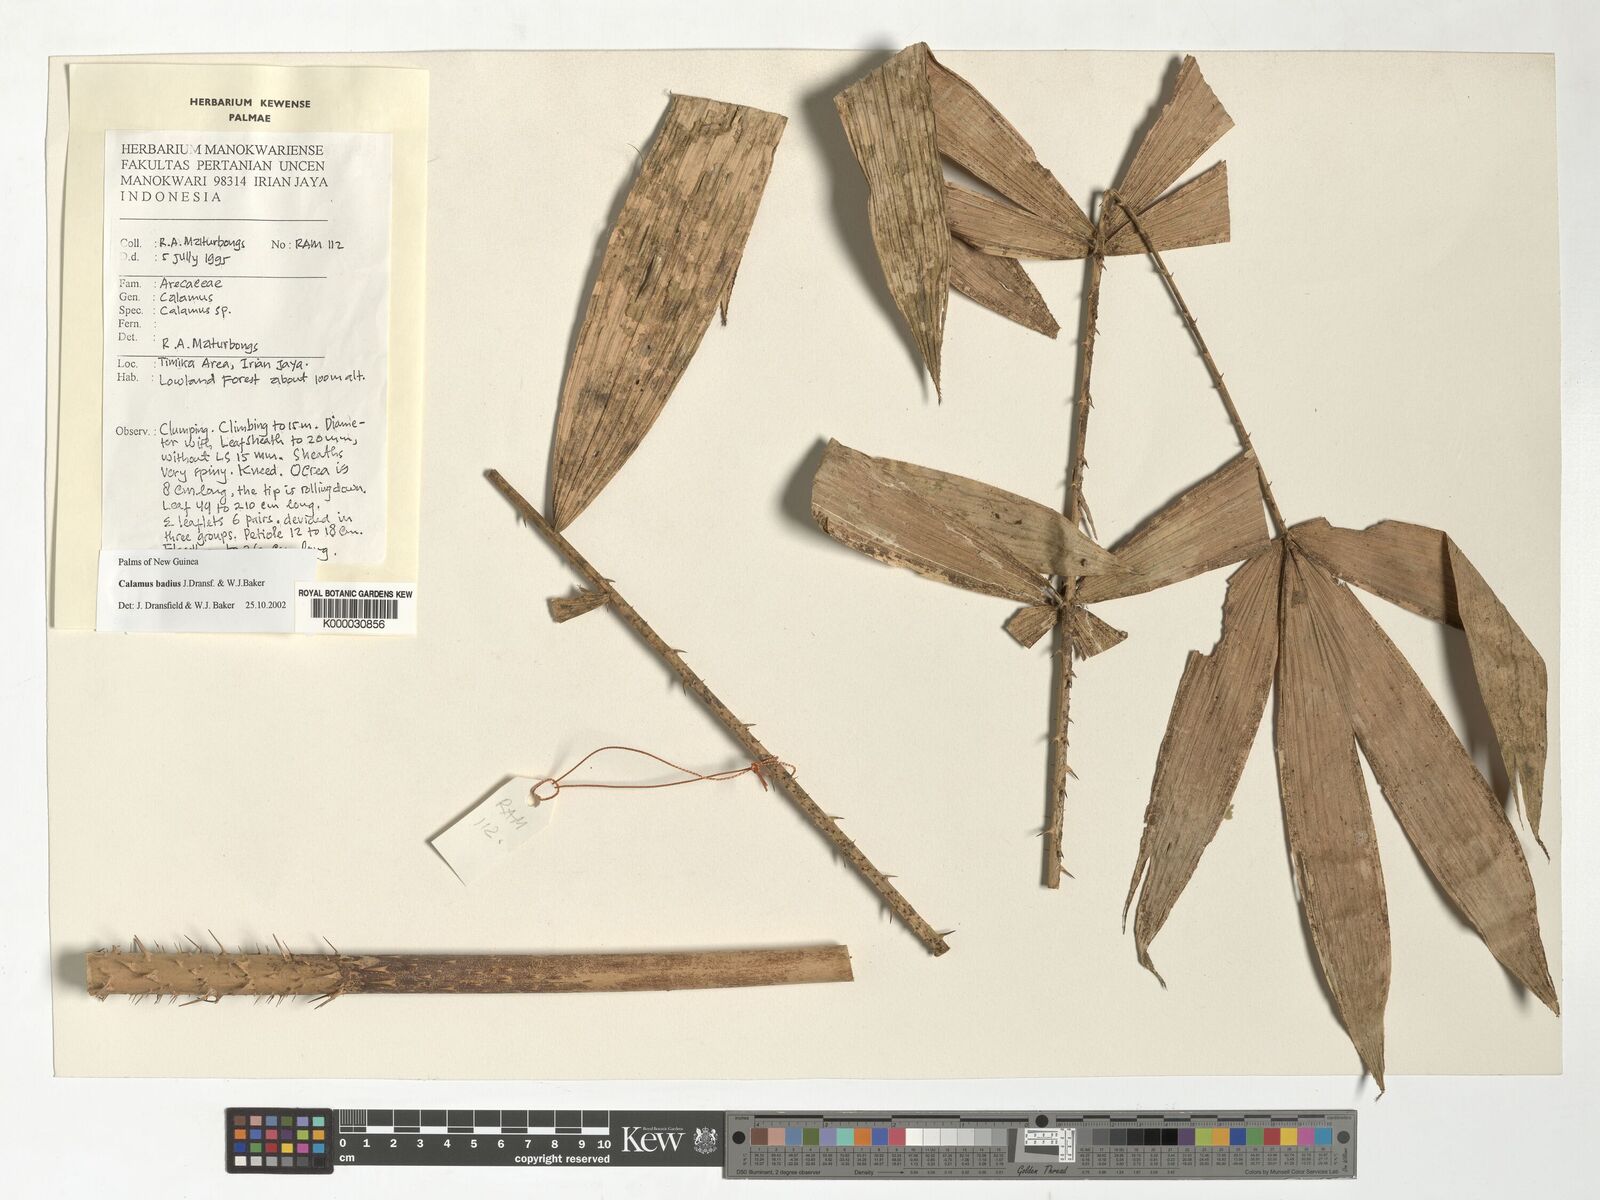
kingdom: Plantae
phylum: Tracheophyta
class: Liliopsida
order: Arecales
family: Arecaceae
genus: Calamus
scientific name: Calamus badius
